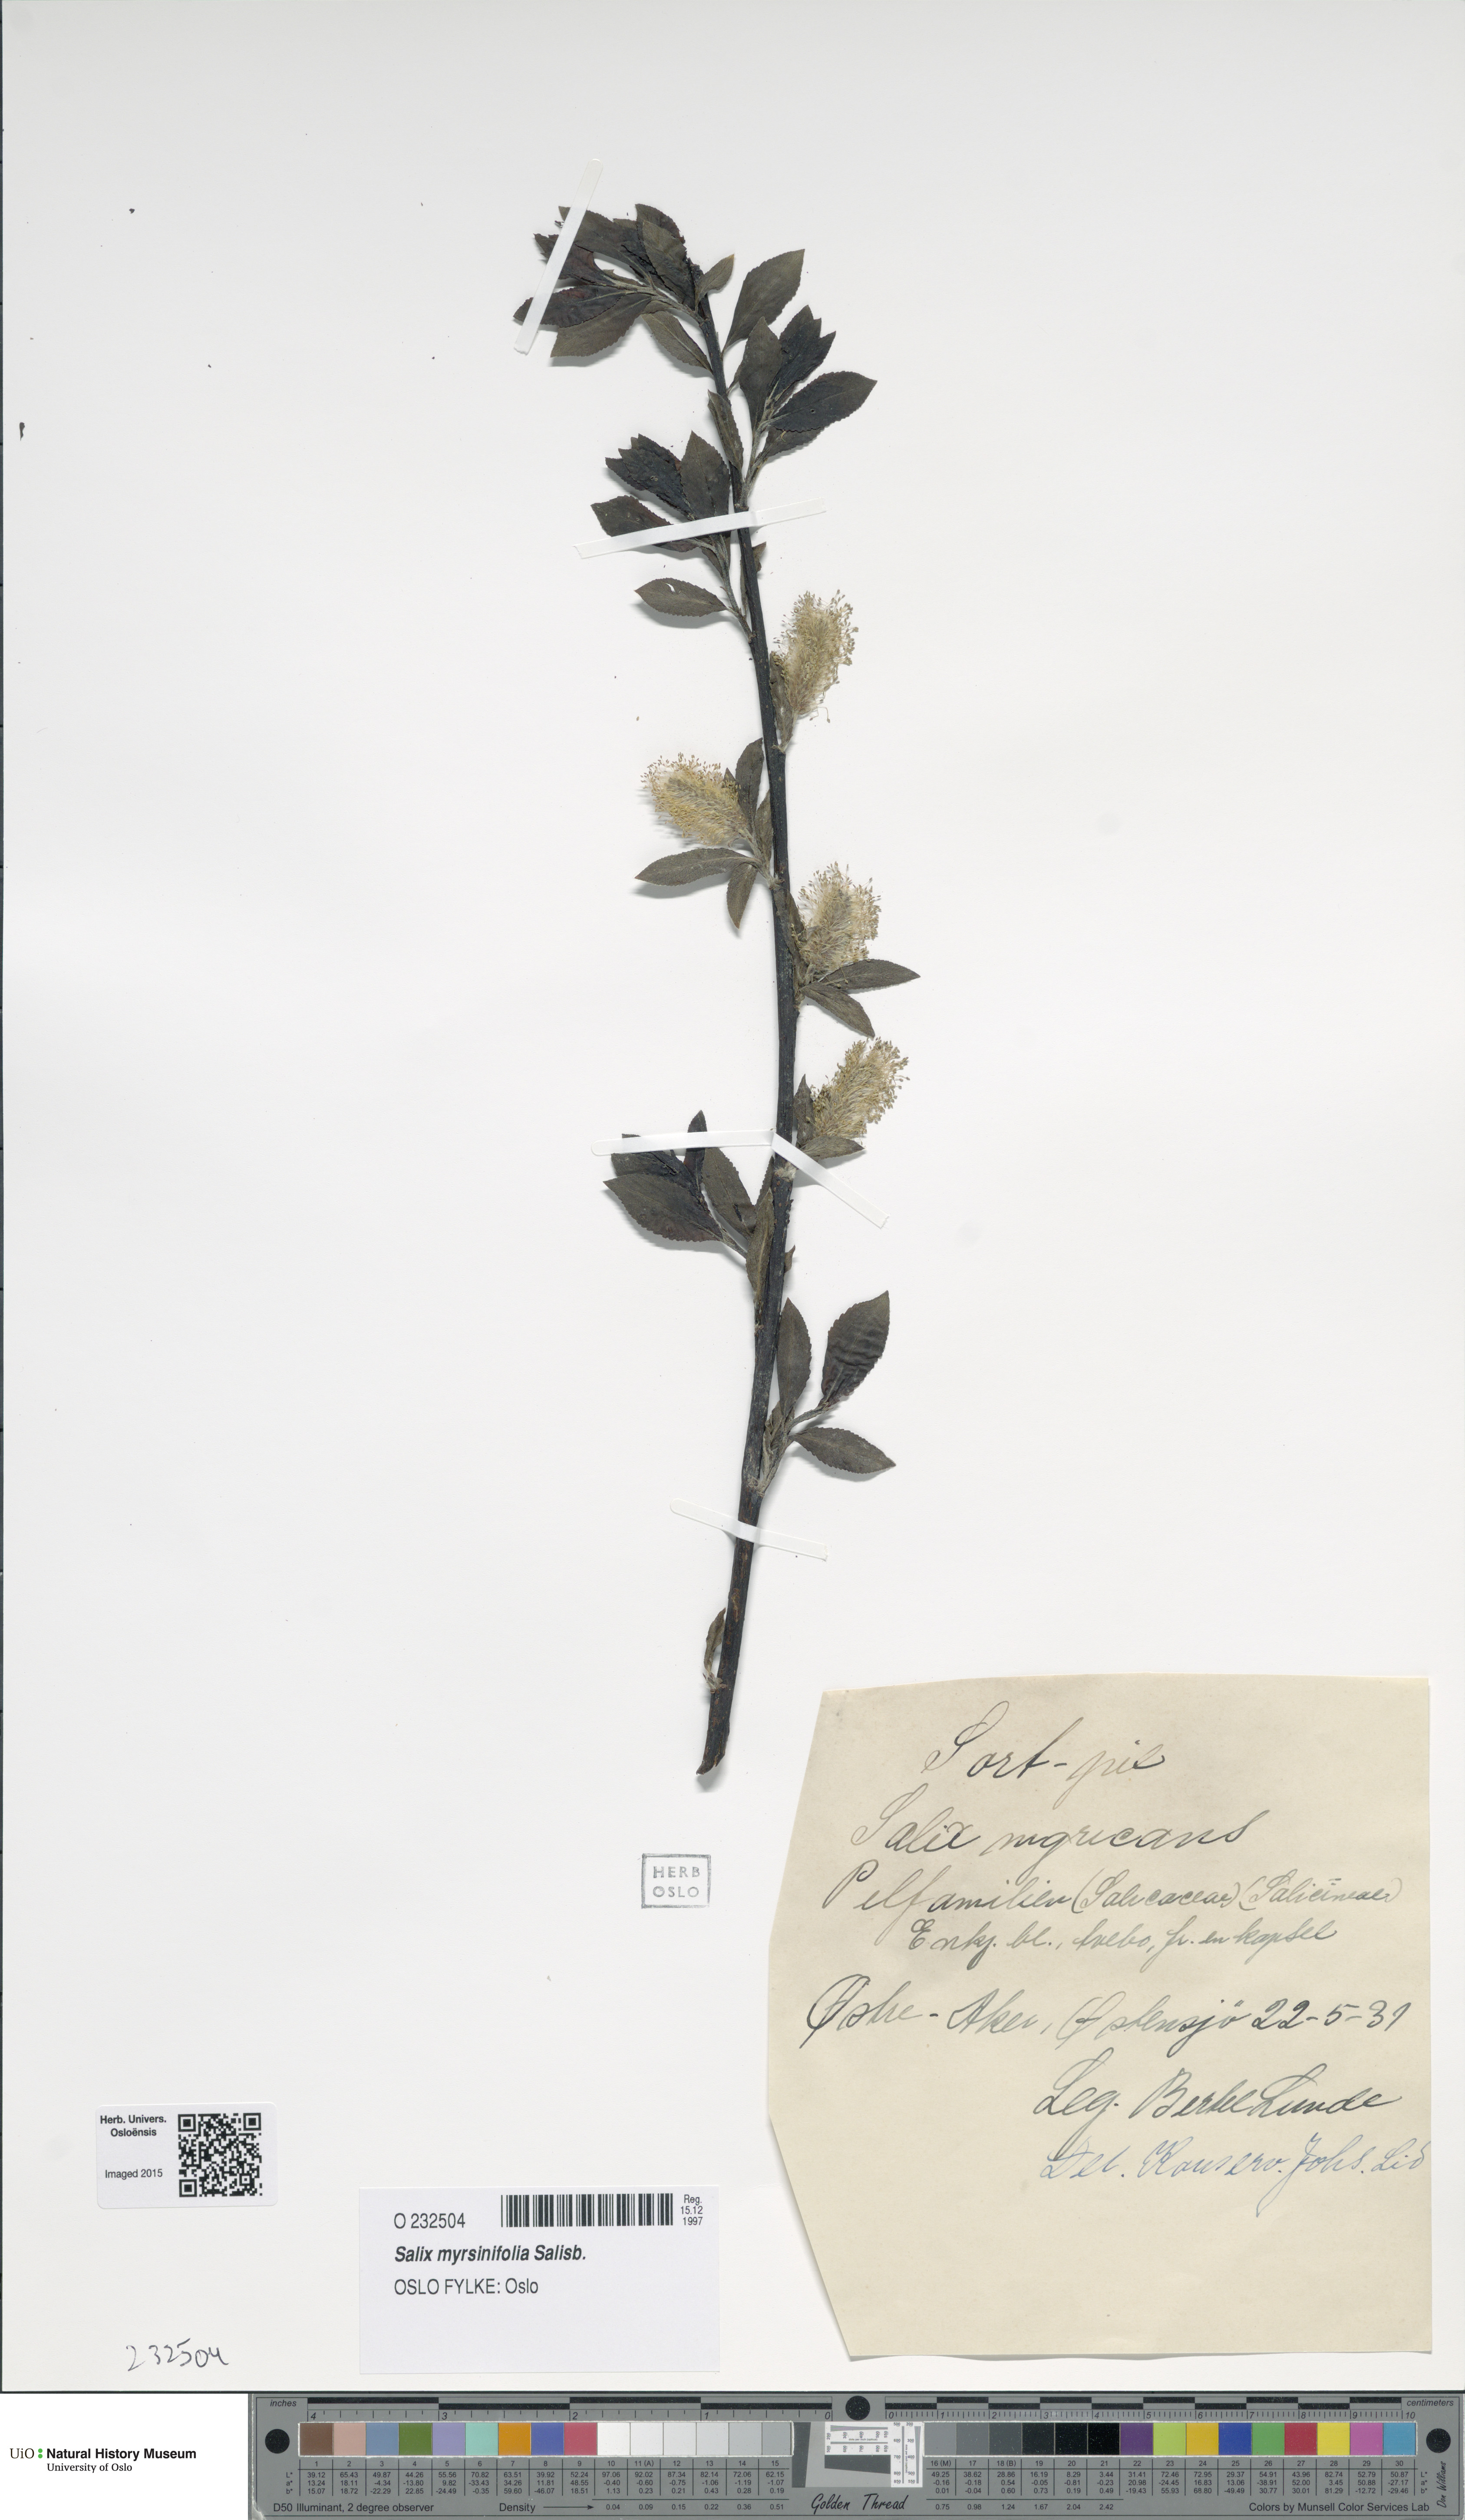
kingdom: Plantae
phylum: Tracheophyta
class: Magnoliopsida
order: Malpighiales
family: Salicaceae
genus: Salix
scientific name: Salix myrsinifolia
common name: Dark-leaved willow
